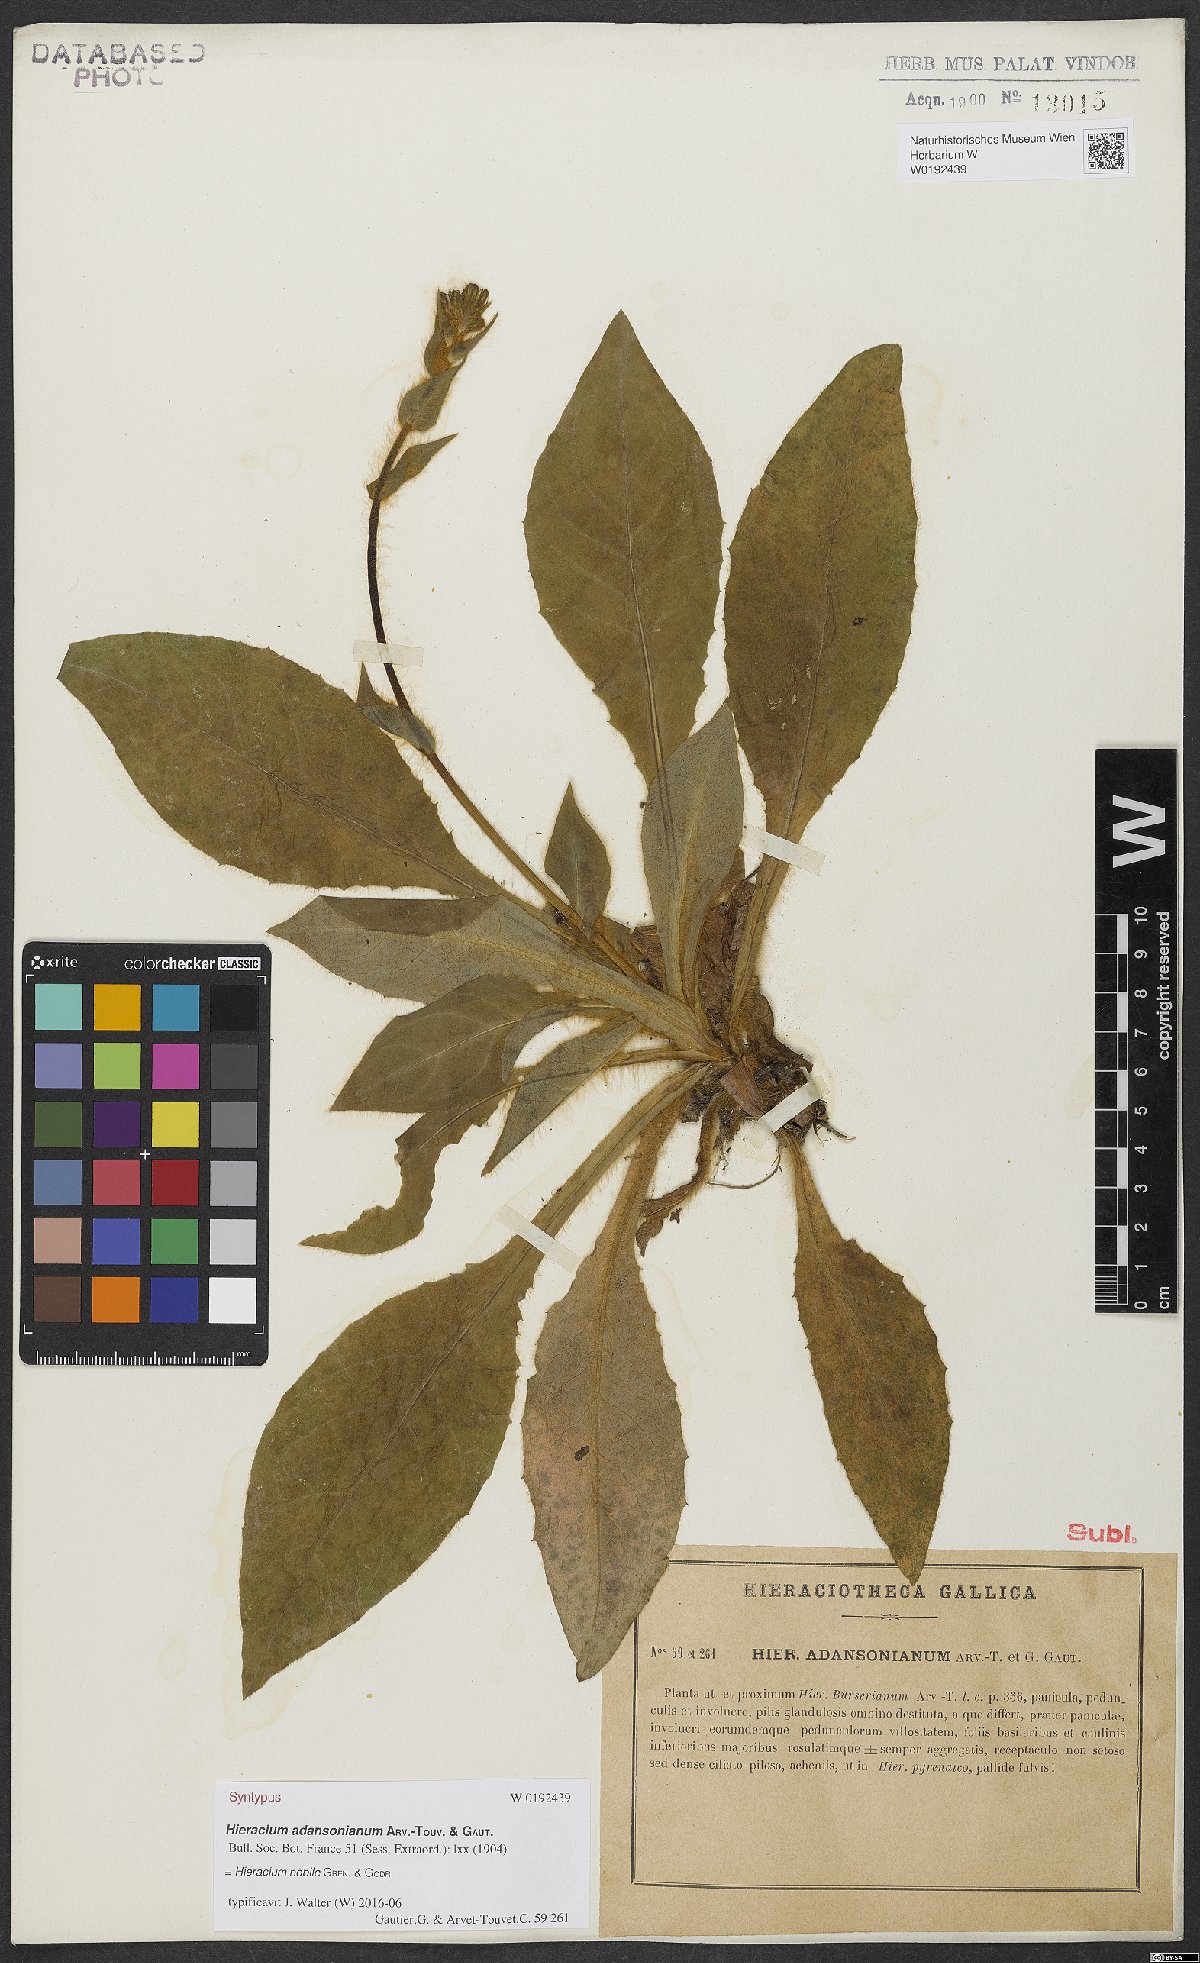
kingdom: Plantae
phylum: Tracheophyta
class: Magnoliopsida
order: Asterales
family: Asteraceae
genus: Hieracium
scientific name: Hieracium nobile
